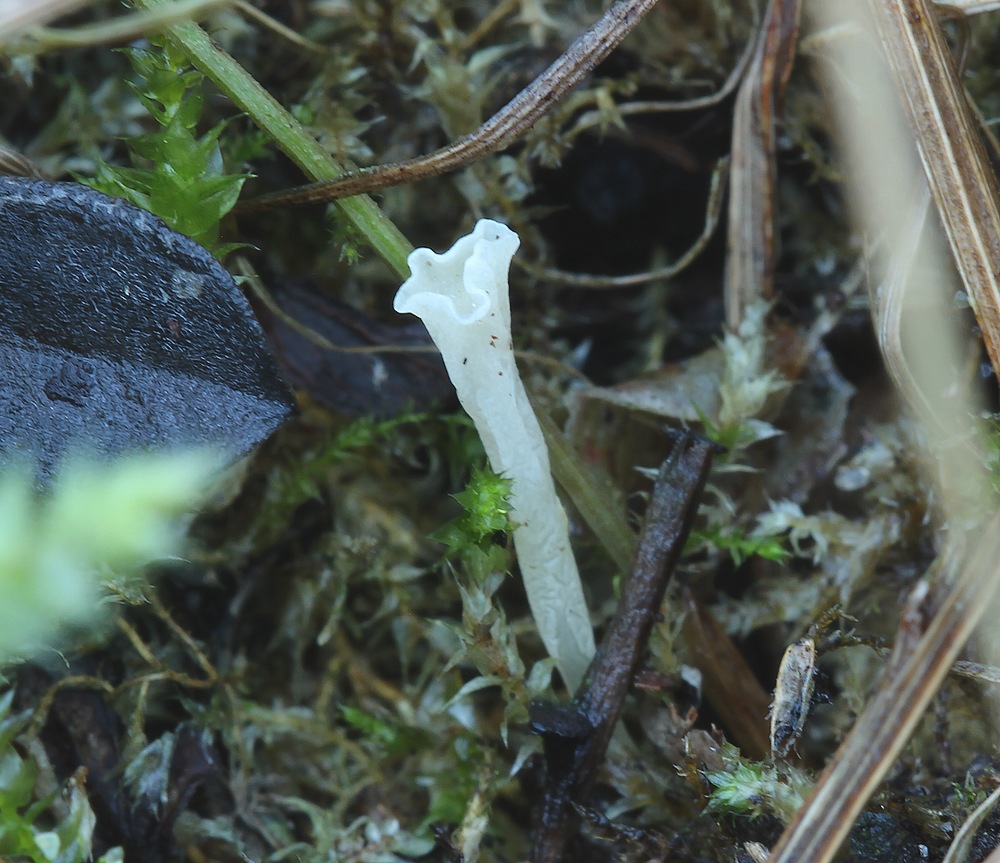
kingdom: Fungi
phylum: Basidiomycota
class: Agaricomycetes
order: Agaricales
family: Clavariaceae
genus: Clavicorona
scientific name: Clavicorona taxophila
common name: trompetkølle
